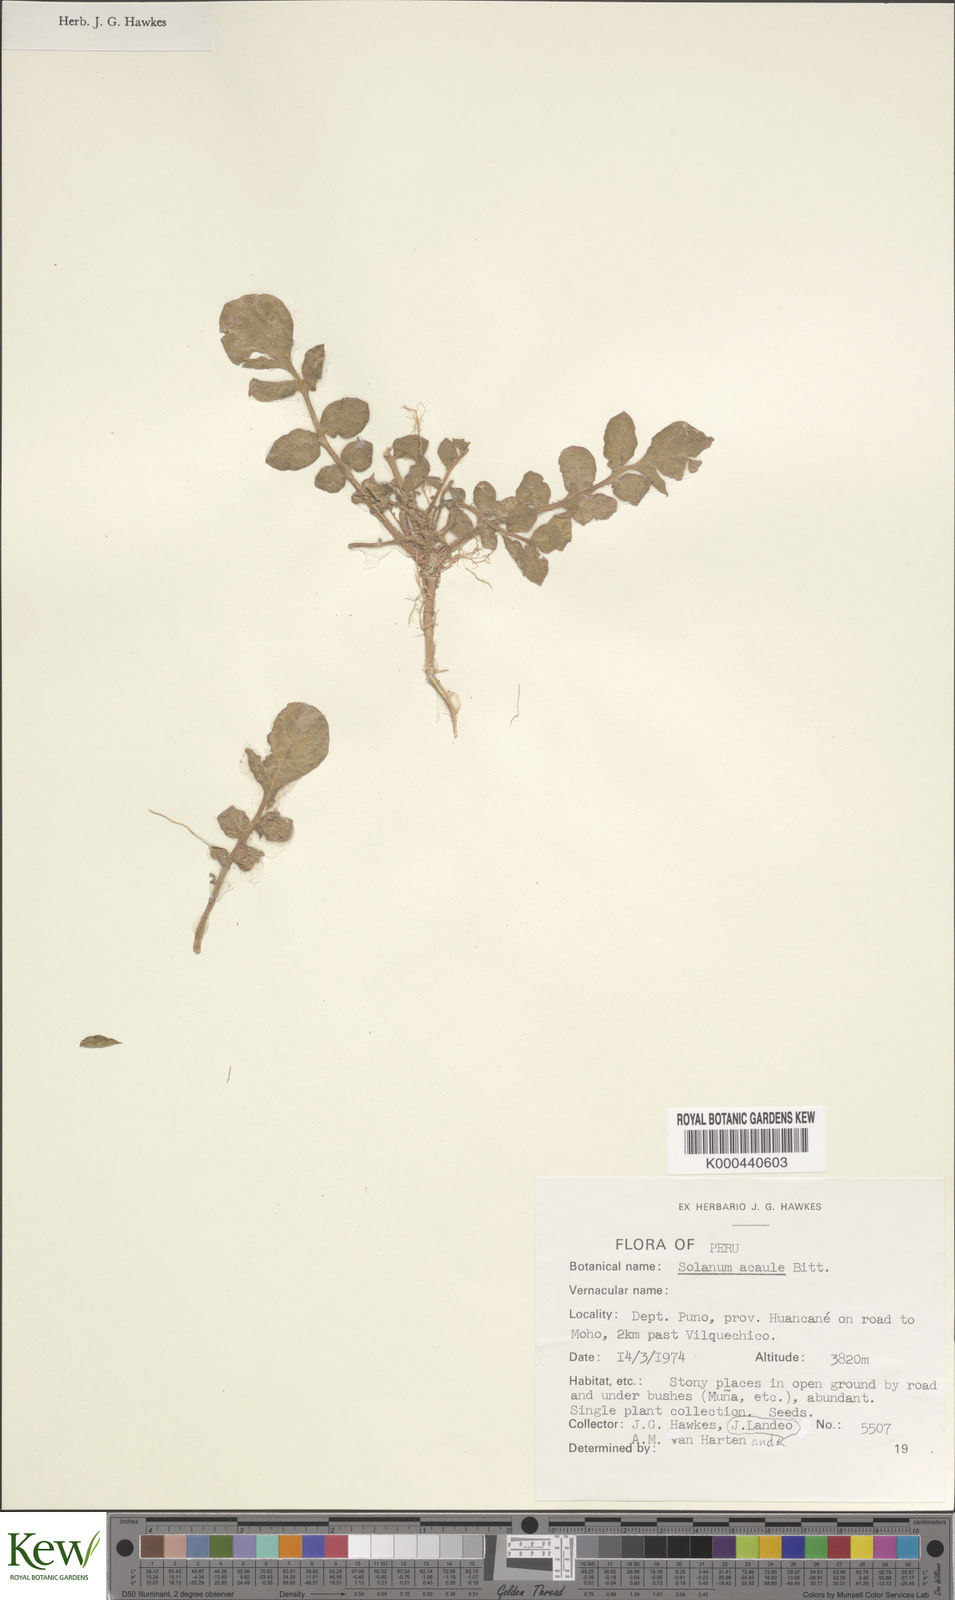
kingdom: Plantae
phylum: Tracheophyta
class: Magnoliopsida
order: Solanales
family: Solanaceae
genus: Solanum
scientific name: Solanum acaule
